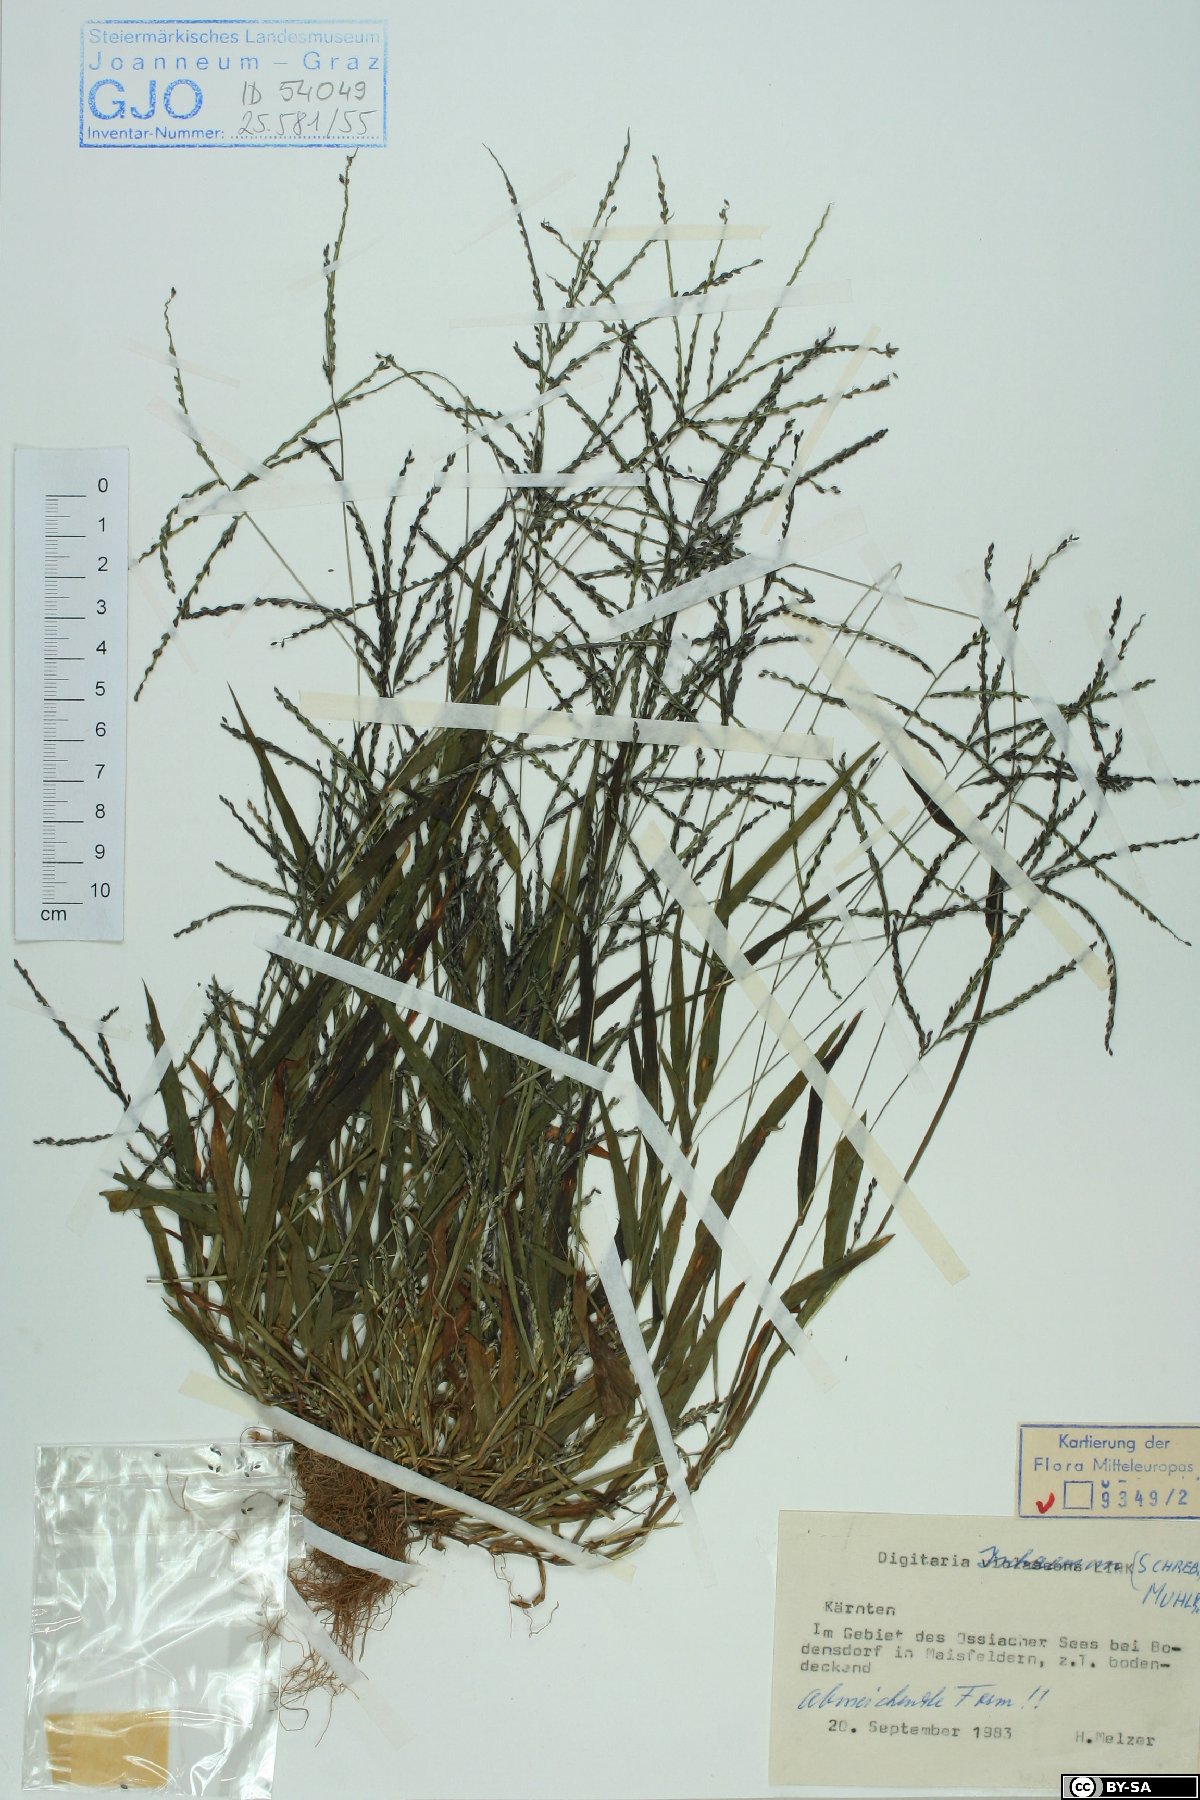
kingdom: Plantae
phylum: Tracheophyta
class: Liliopsida
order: Poales
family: Poaceae
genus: Digitaria
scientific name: Digitaria ischaemum
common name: Smooth crabgrass
